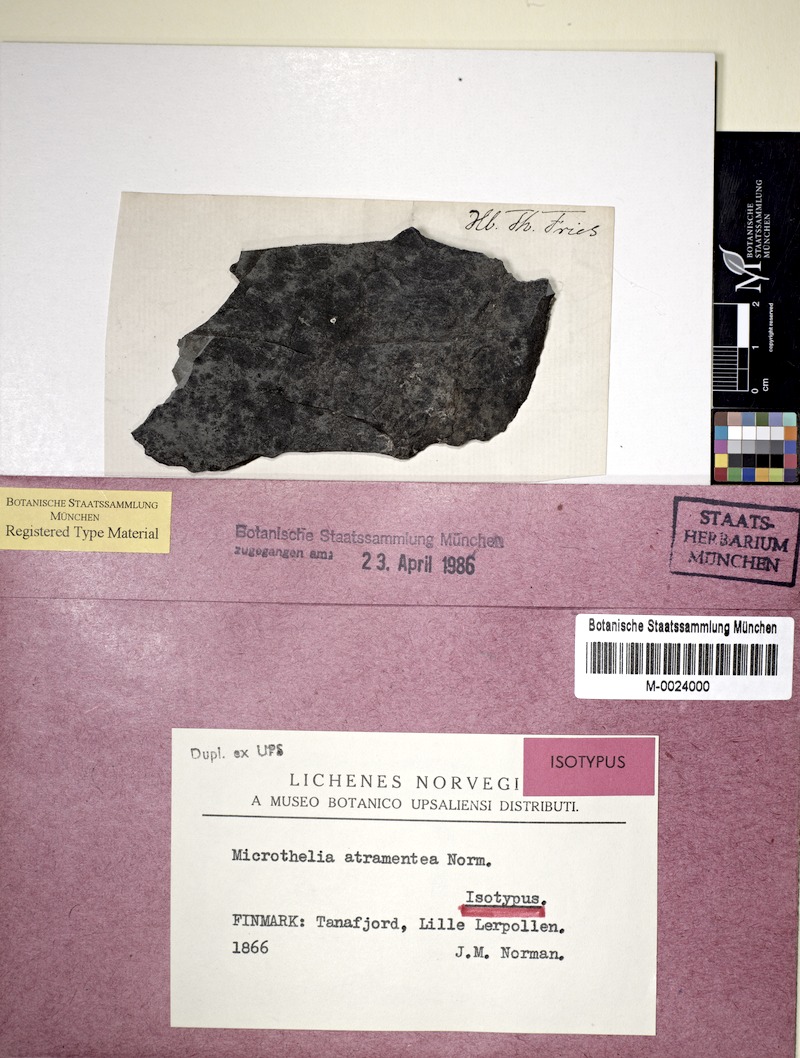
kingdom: Fungi
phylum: Ascomycota
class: Dothideomycetes
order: Lichenotheliales
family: Lichenotheliaceae
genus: Lichenothelia
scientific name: Lichenothelia scopularia
